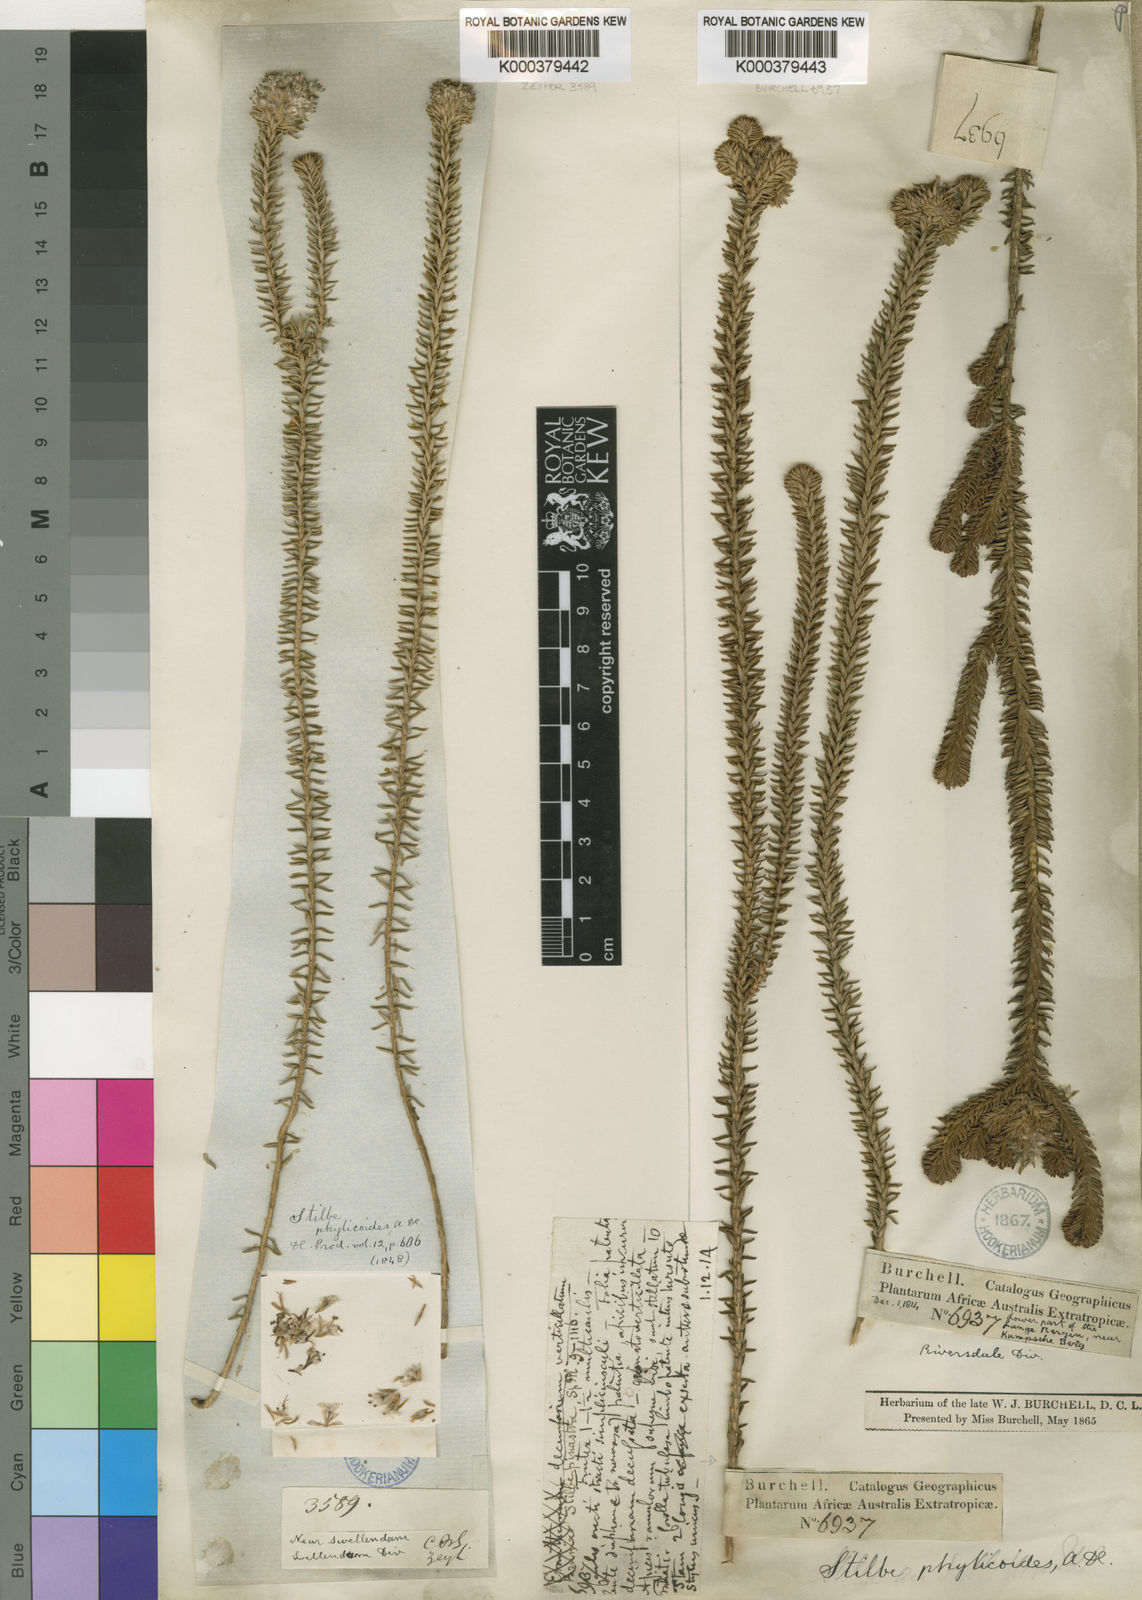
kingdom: Plantae
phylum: Tracheophyta
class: Magnoliopsida
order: Lamiales
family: Stilbaceae
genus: Kogelbergia
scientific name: Kogelbergia phylicoides
